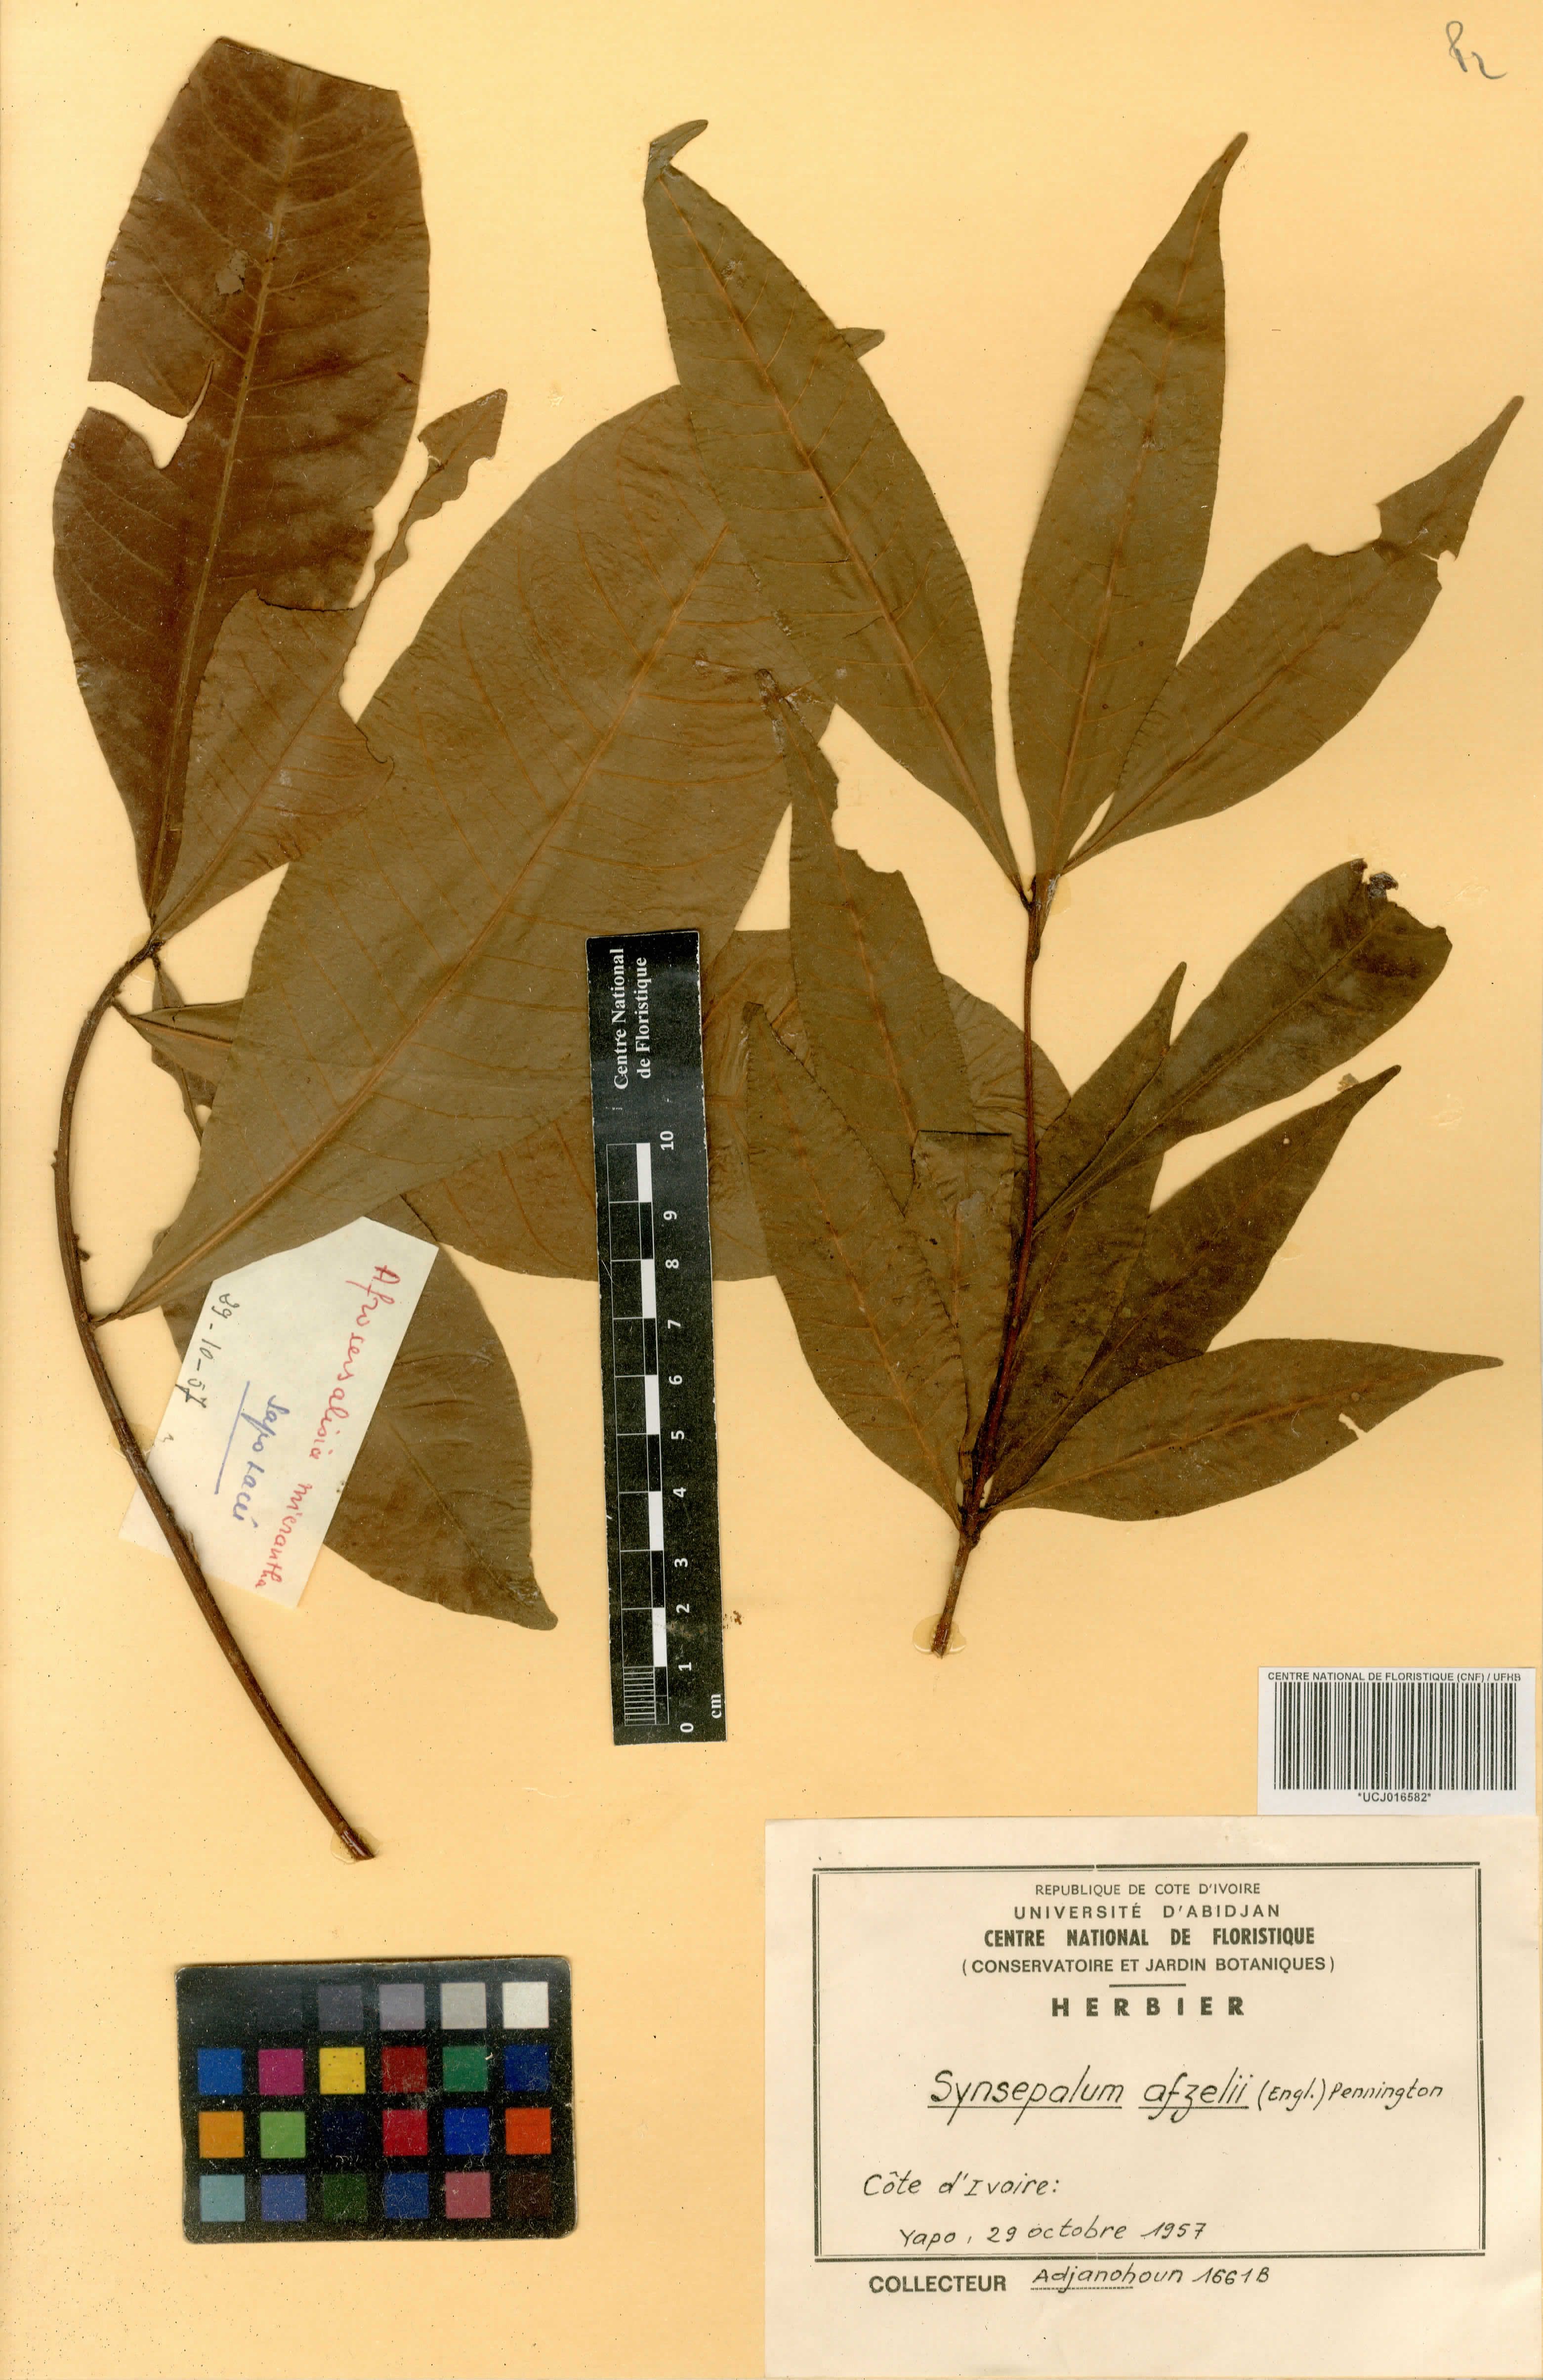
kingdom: Plantae
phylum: Tracheophyta
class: Magnoliopsida
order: Ericales
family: Sapotaceae
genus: Synsepalum
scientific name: Synsepalum afzelii
